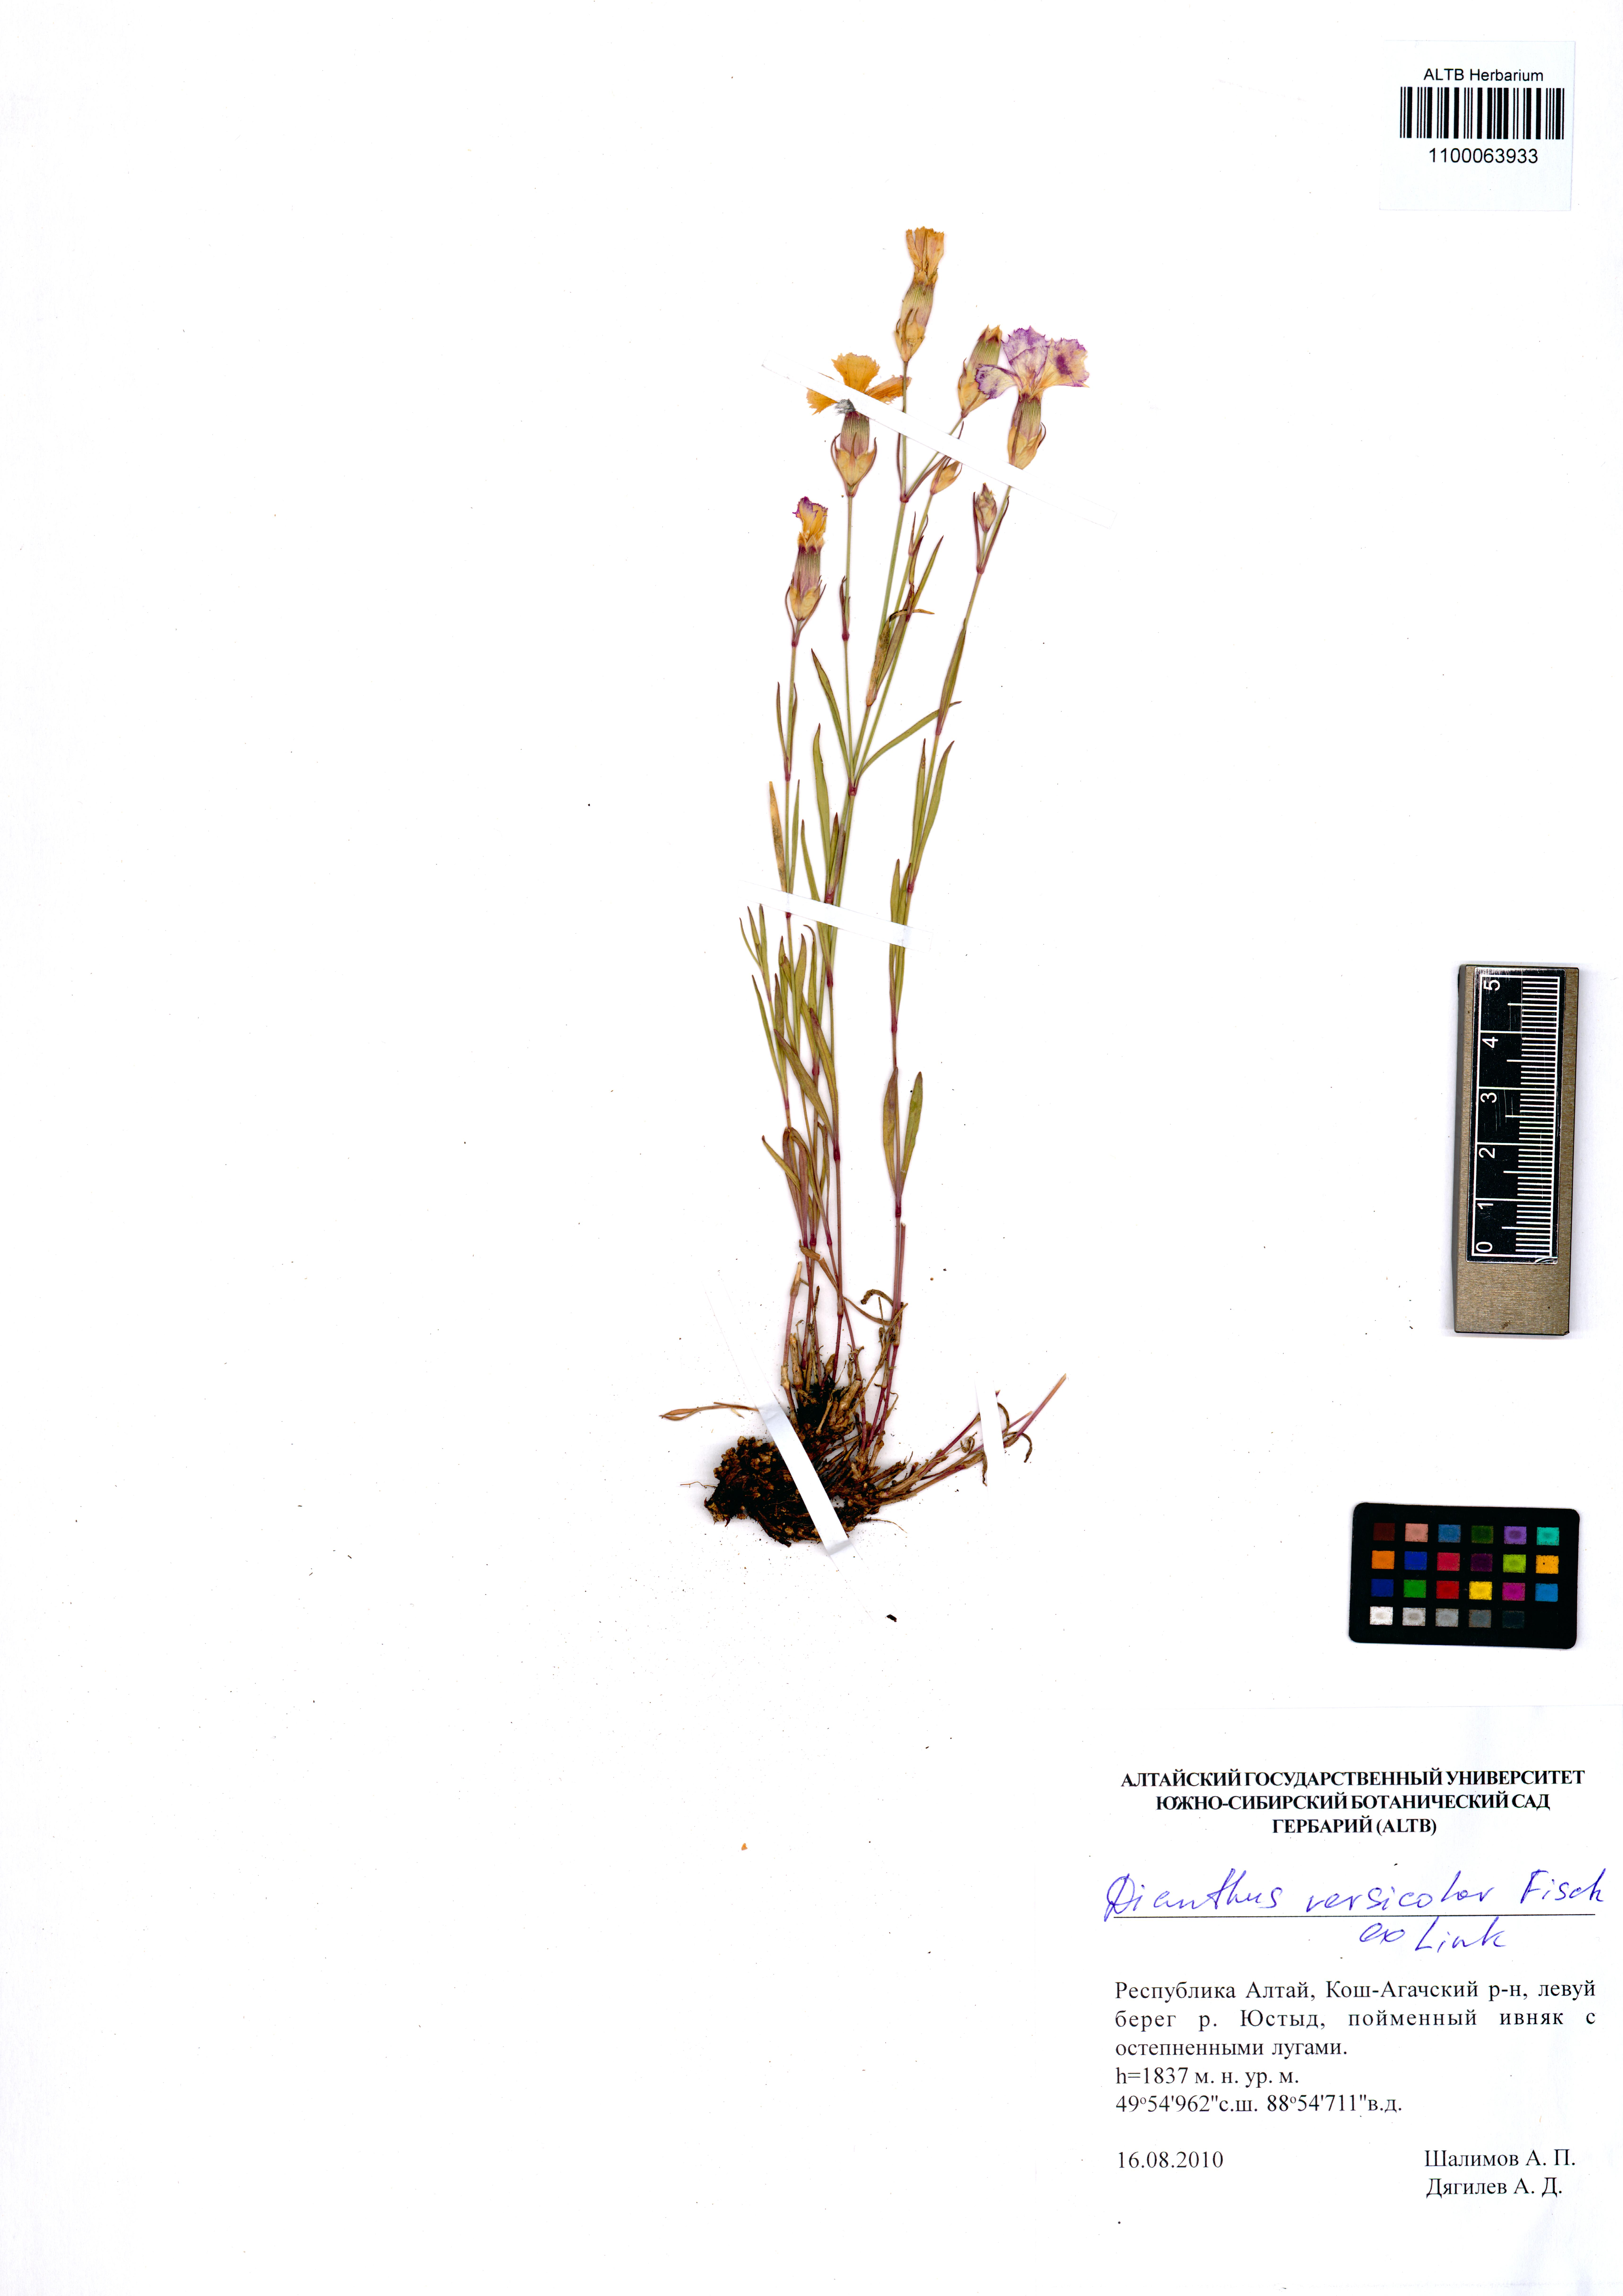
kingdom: Plantae
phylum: Tracheophyta
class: Magnoliopsida
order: Caryophyllales
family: Caryophyllaceae
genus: Dianthus
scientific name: Dianthus chinensis
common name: Rainbow pink
